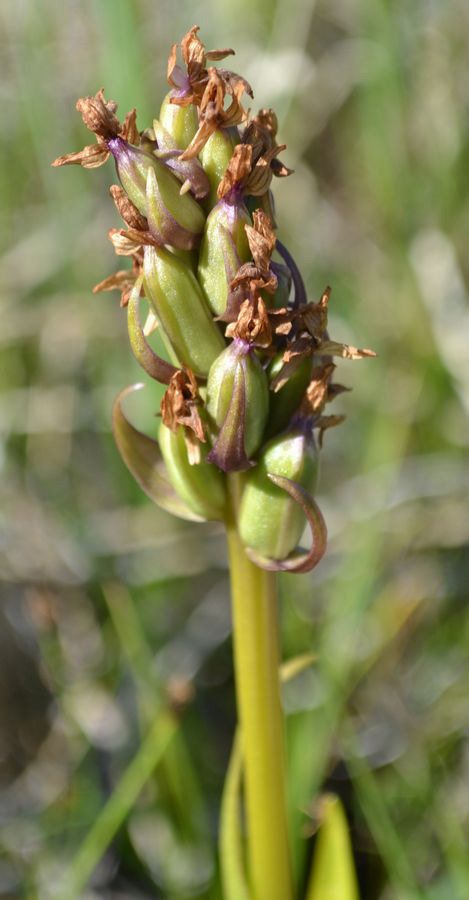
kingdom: Plantae
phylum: Tracheophyta
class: Liliopsida
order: Asparagales
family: Orchidaceae
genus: Dactylorhiza
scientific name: Dactylorhiza incarnata
